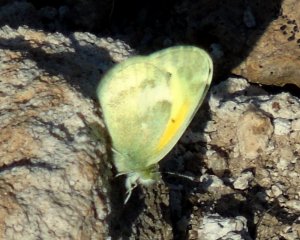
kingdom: Animalia
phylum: Arthropoda
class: Insecta
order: Lepidoptera
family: Pieridae
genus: Nathalis
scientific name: Nathalis iole
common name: Dainty Sulphur
